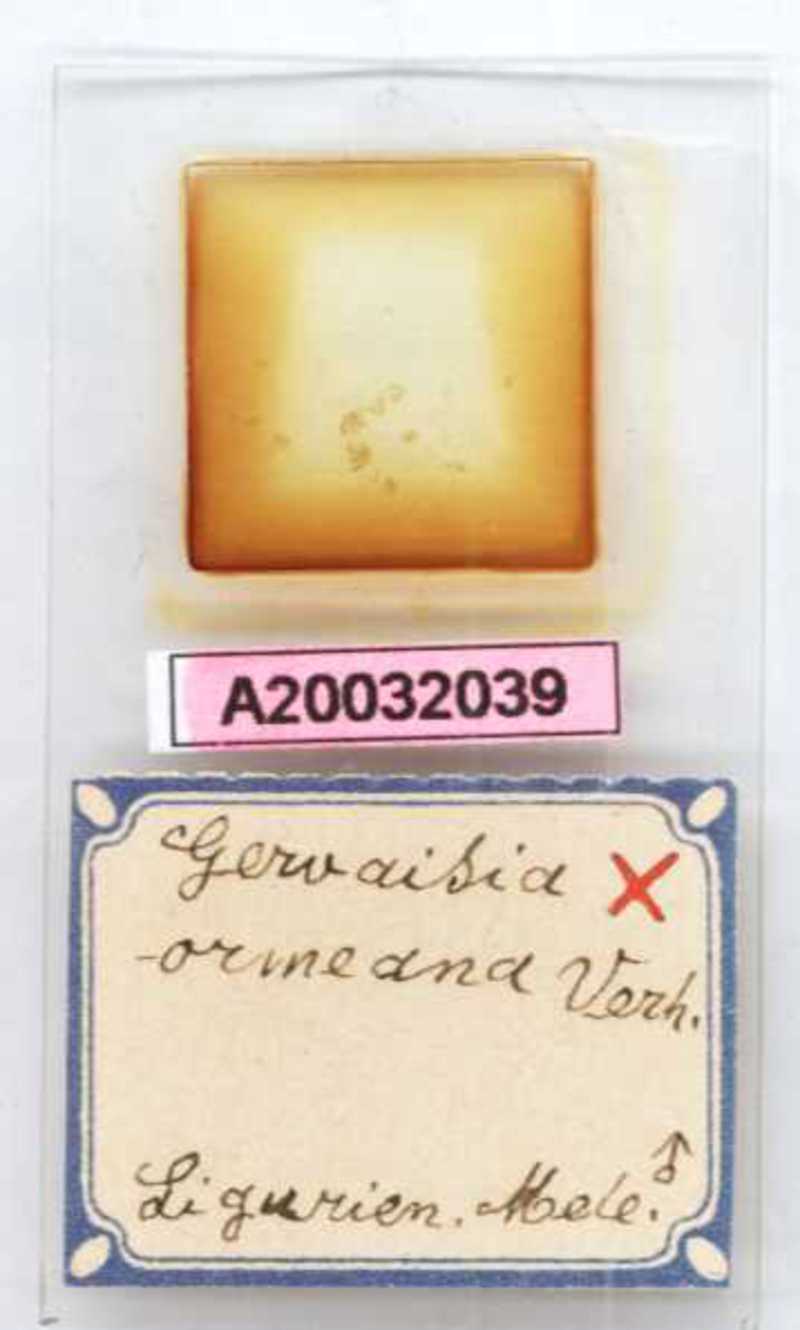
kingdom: Animalia
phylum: Arthropoda
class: Diplopoda
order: Glomerida
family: Glomeridae
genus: Trachysphaera
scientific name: Trachysphaera ormeana
